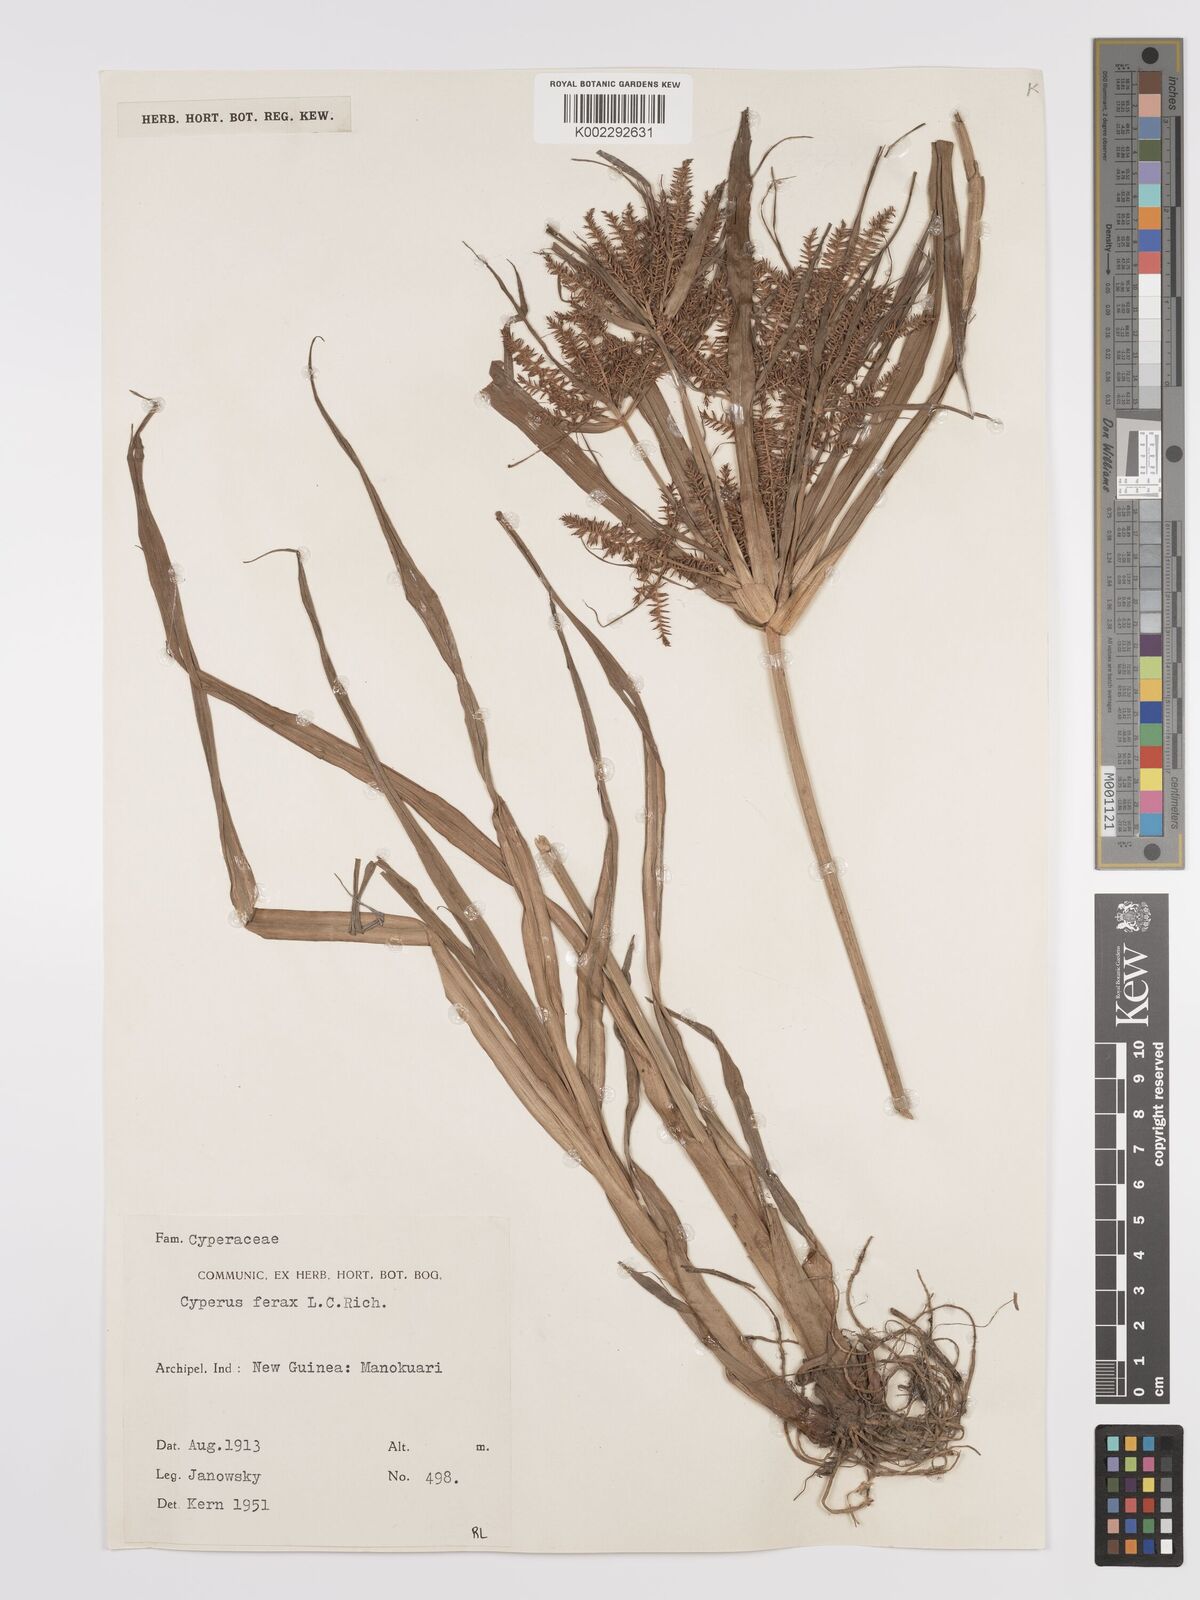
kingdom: Plantae
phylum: Tracheophyta
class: Liliopsida
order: Poales
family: Cyperaceae
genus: Cyperus
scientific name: Cyperus odoratus
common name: Fragrant flatsedge
